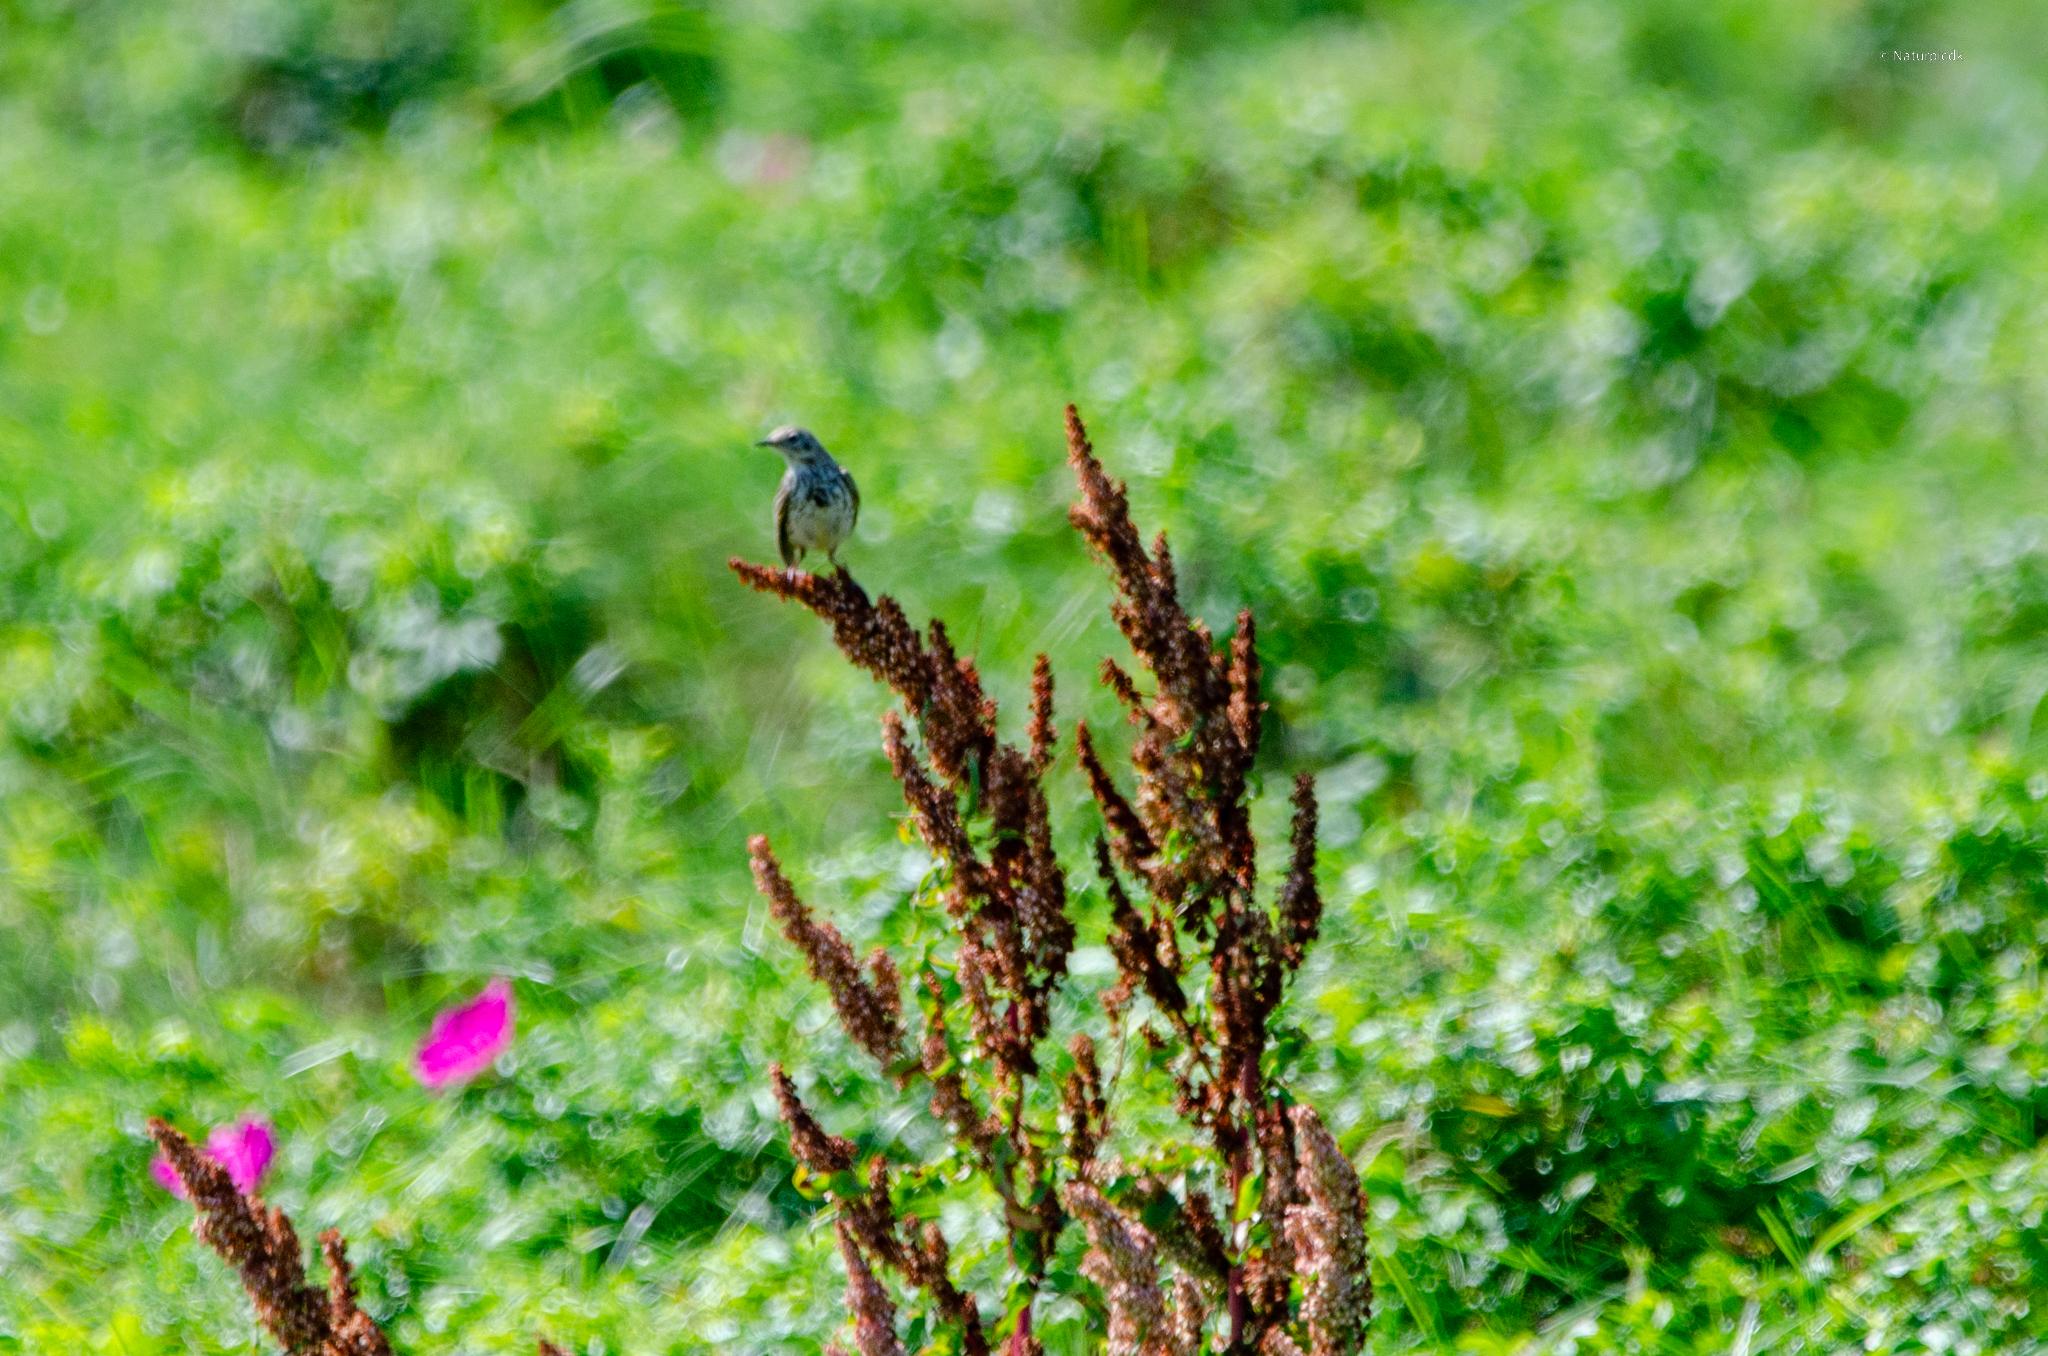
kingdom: Animalia
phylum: Chordata
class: Aves
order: Passeriformes
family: Motacillidae
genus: Anthus
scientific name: Anthus pratensis
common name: Engpiber
